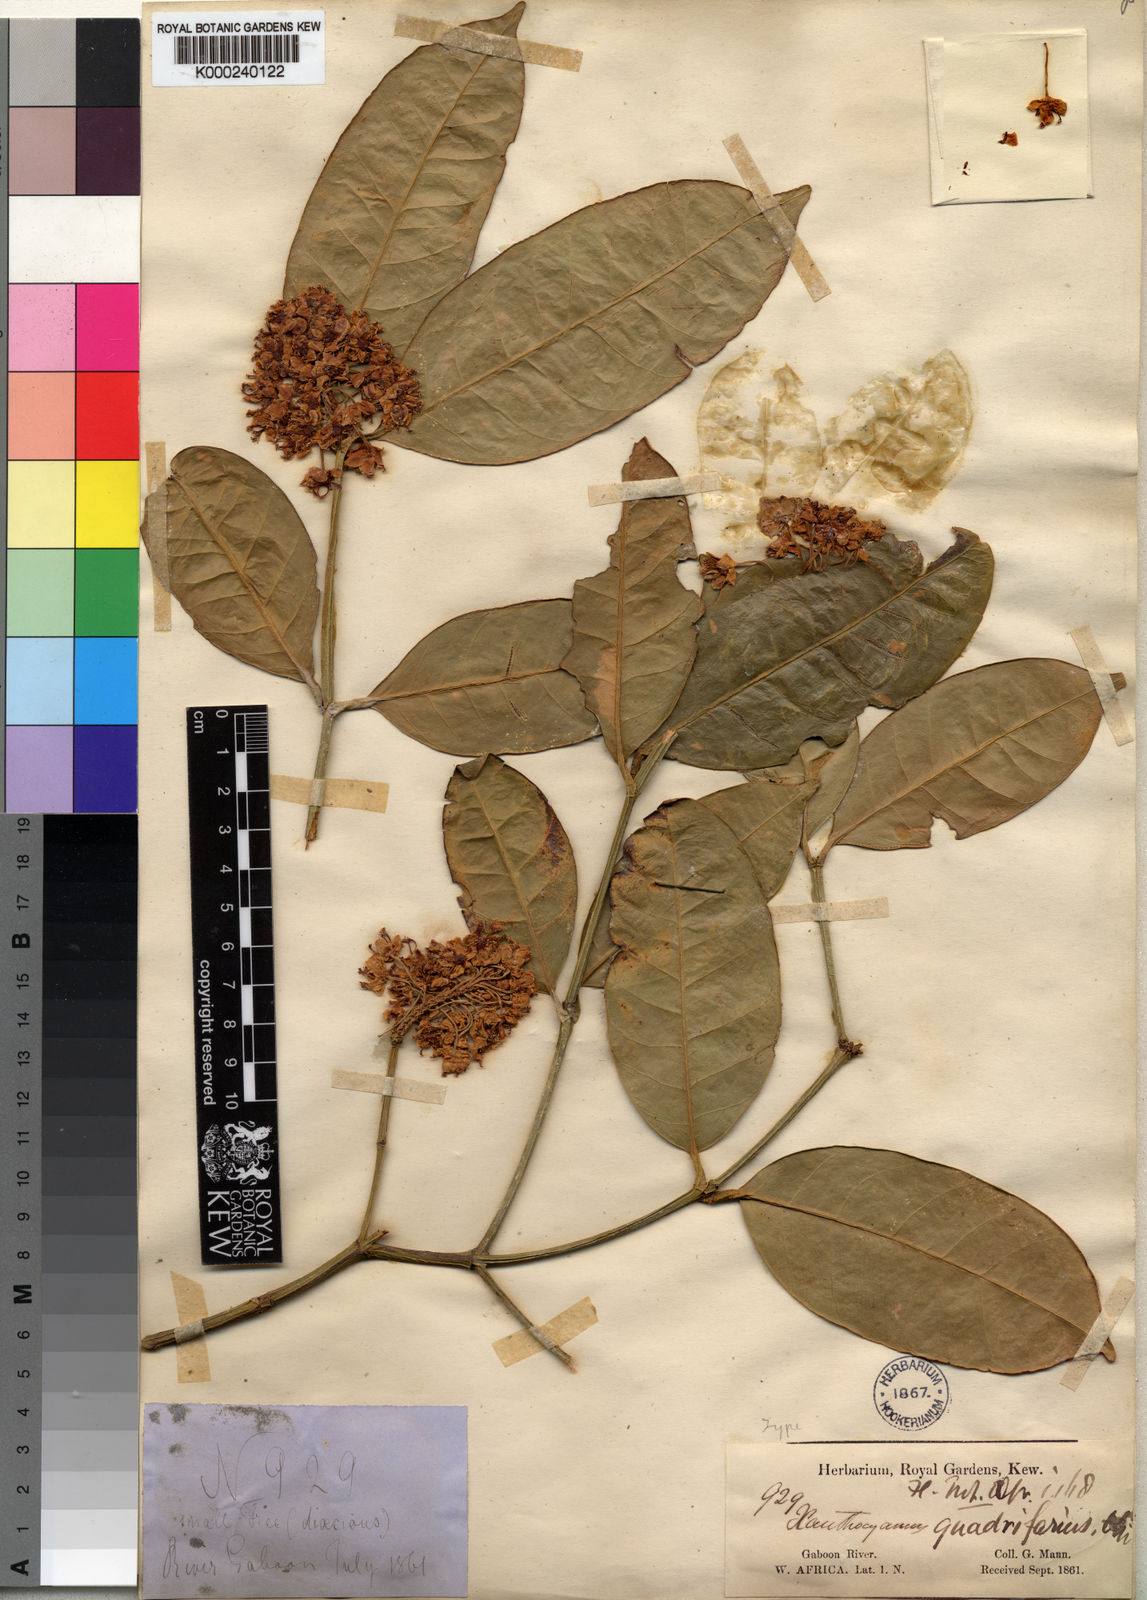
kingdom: Plantae
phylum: Tracheophyta
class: Magnoliopsida
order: Malpighiales
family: Clusiaceae
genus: Garcinia
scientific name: Garcinia quadrifaria
